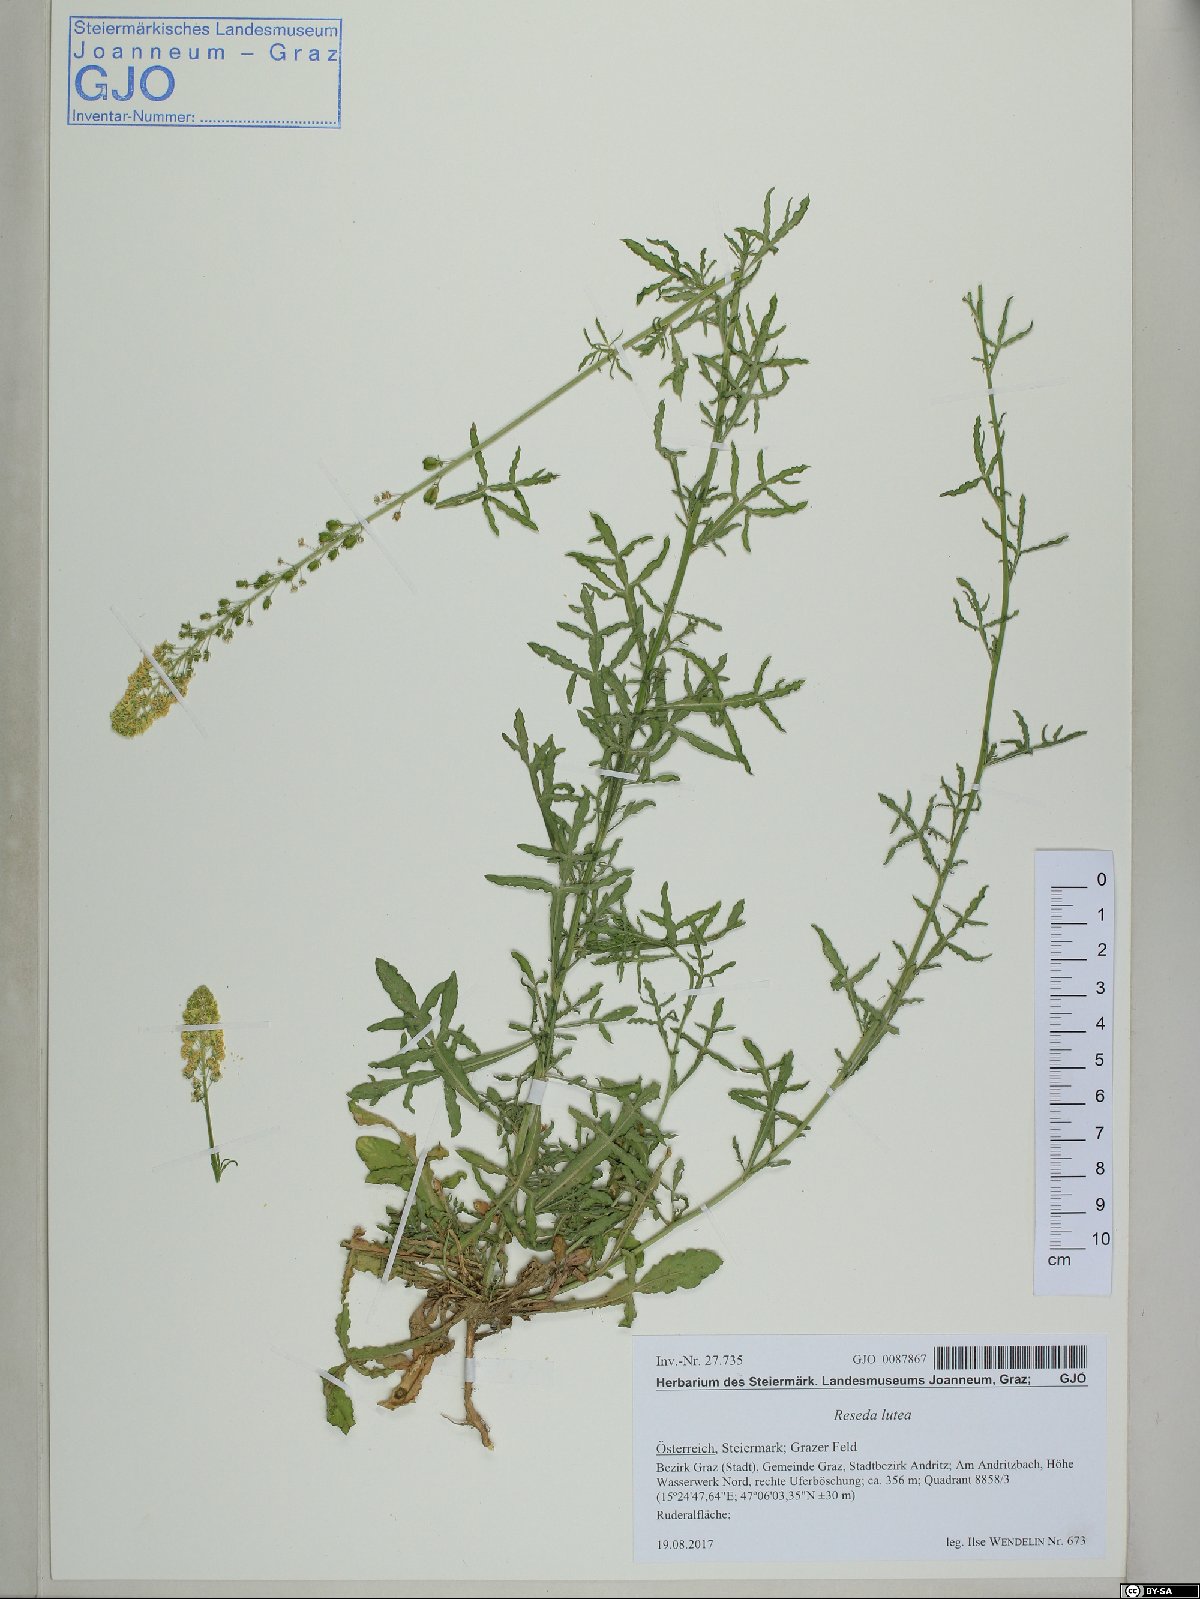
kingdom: Plantae
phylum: Tracheophyta
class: Magnoliopsida
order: Brassicales
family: Resedaceae
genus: Reseda
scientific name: Reseda lutea
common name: Wild mignonette
